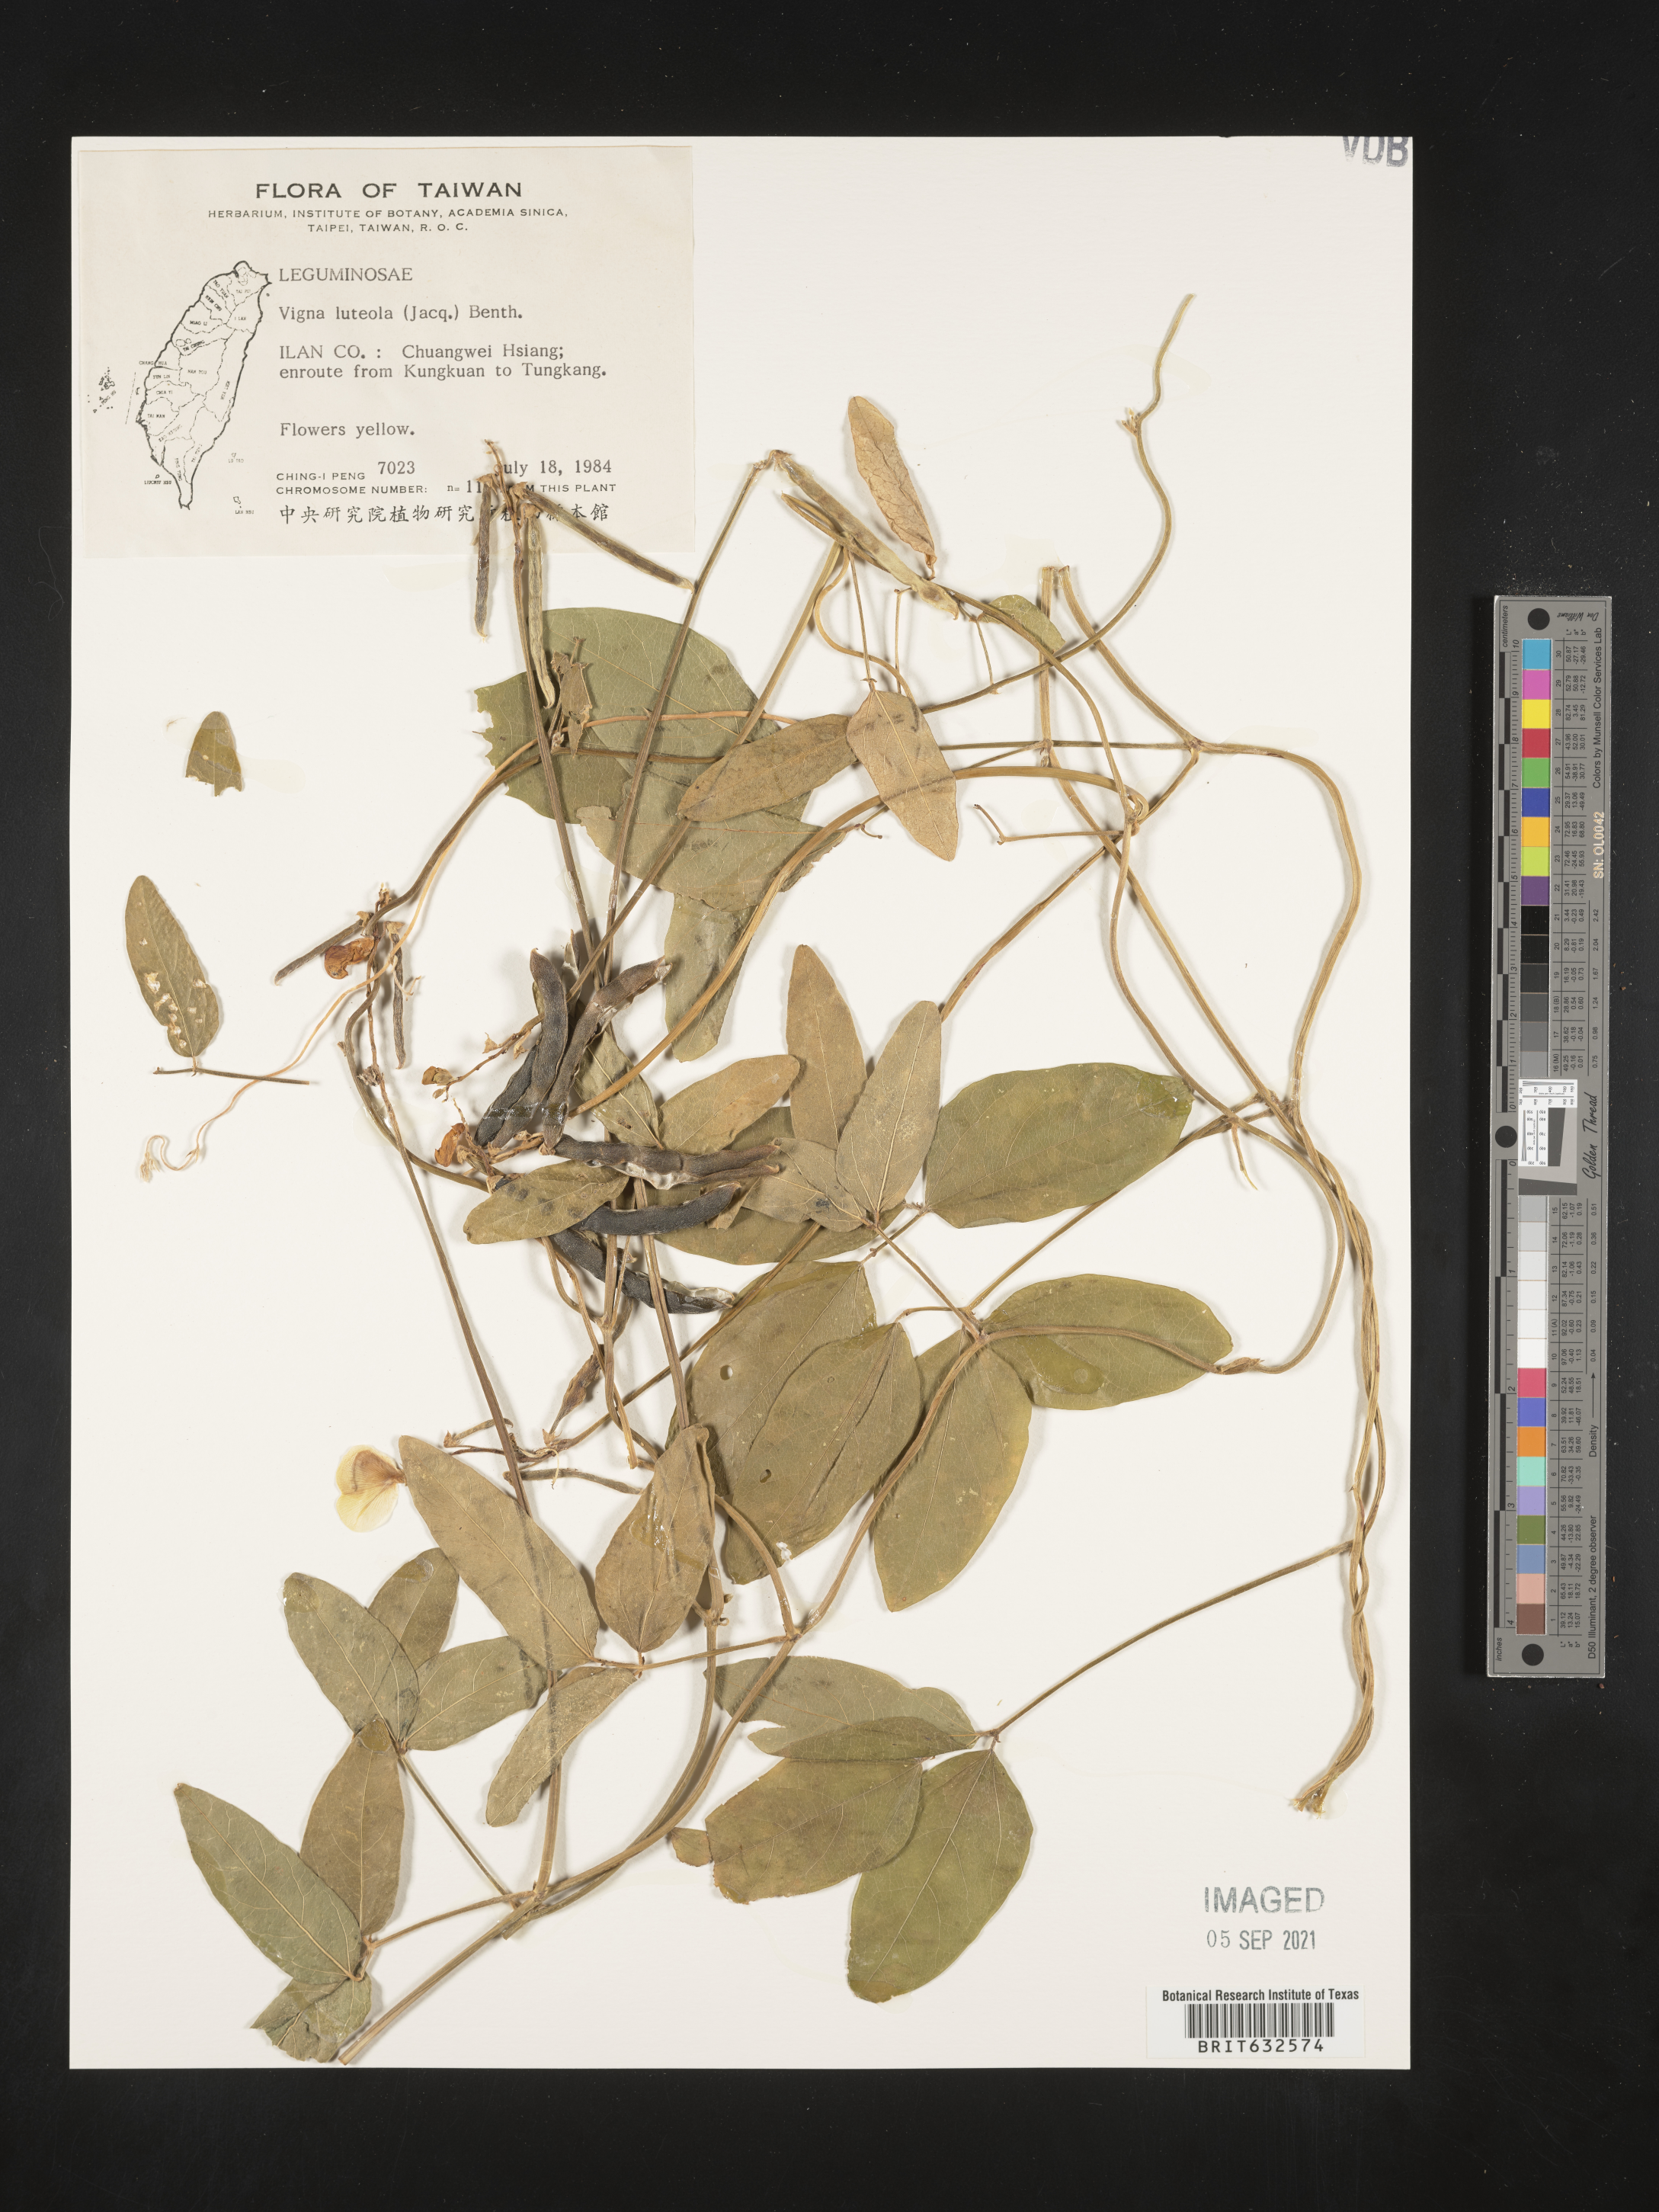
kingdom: Plantae
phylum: Tracheophyta
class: Magnoliopsida
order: Fabales
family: Fabaceae
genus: Vigna
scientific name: Vigna
